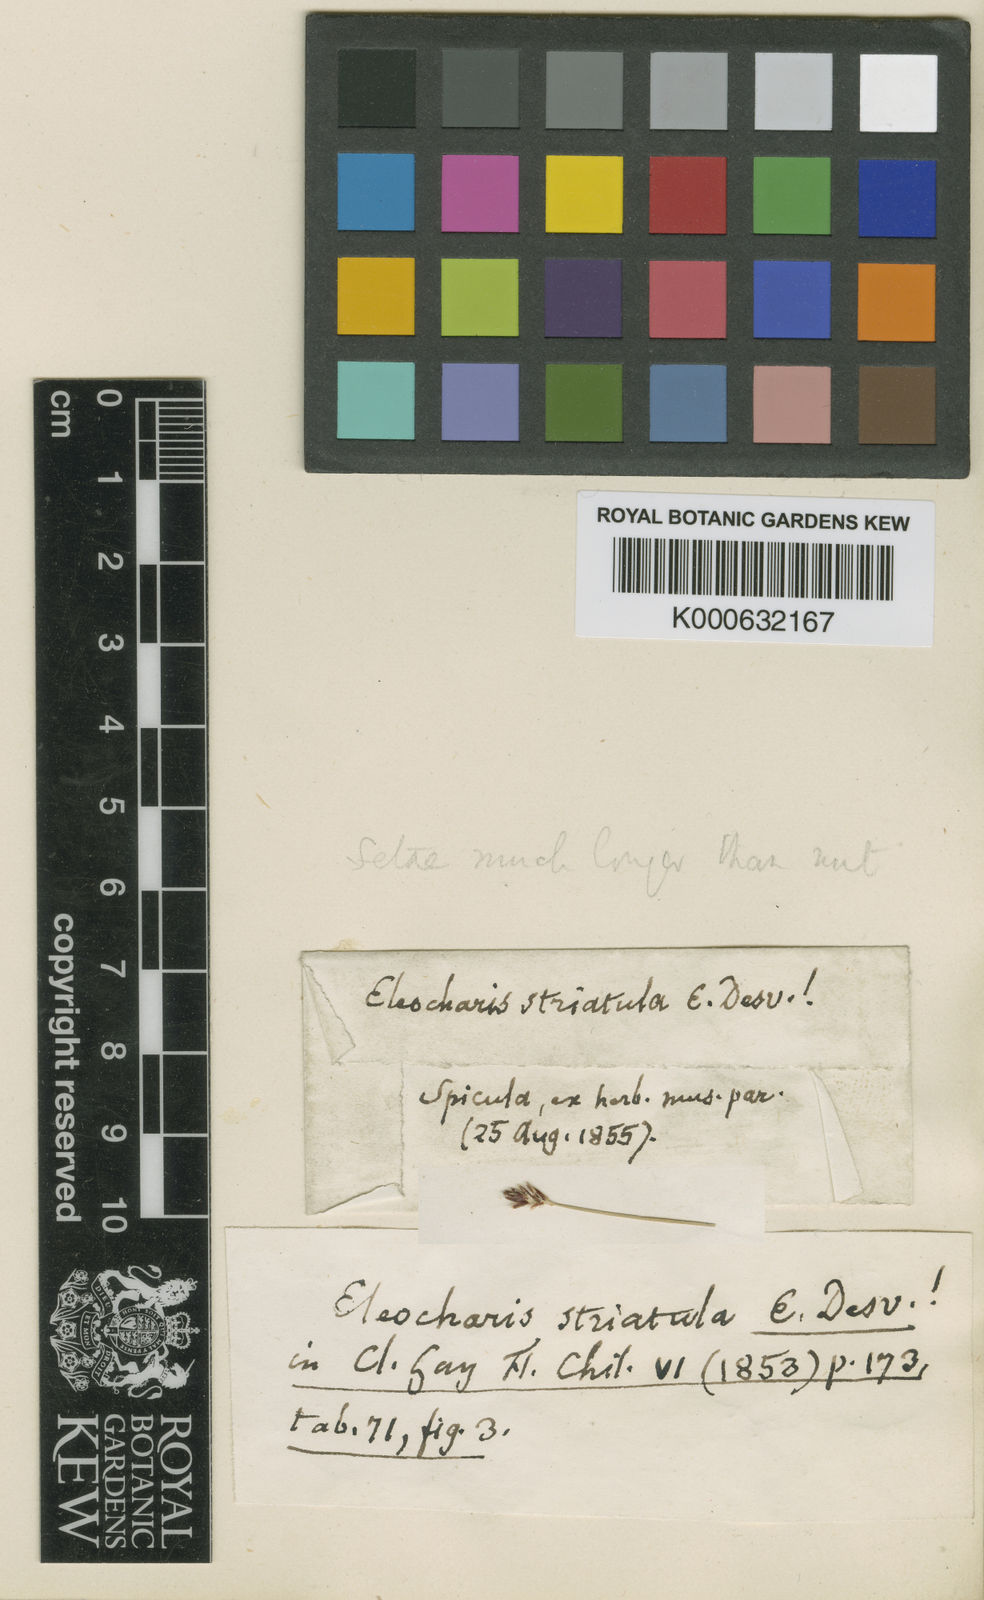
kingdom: Plantae
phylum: Tracheophyta
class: Liliopsida
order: Poales
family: Cyperaceae
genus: Eleocharis
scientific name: Eleocharis bonariensis
